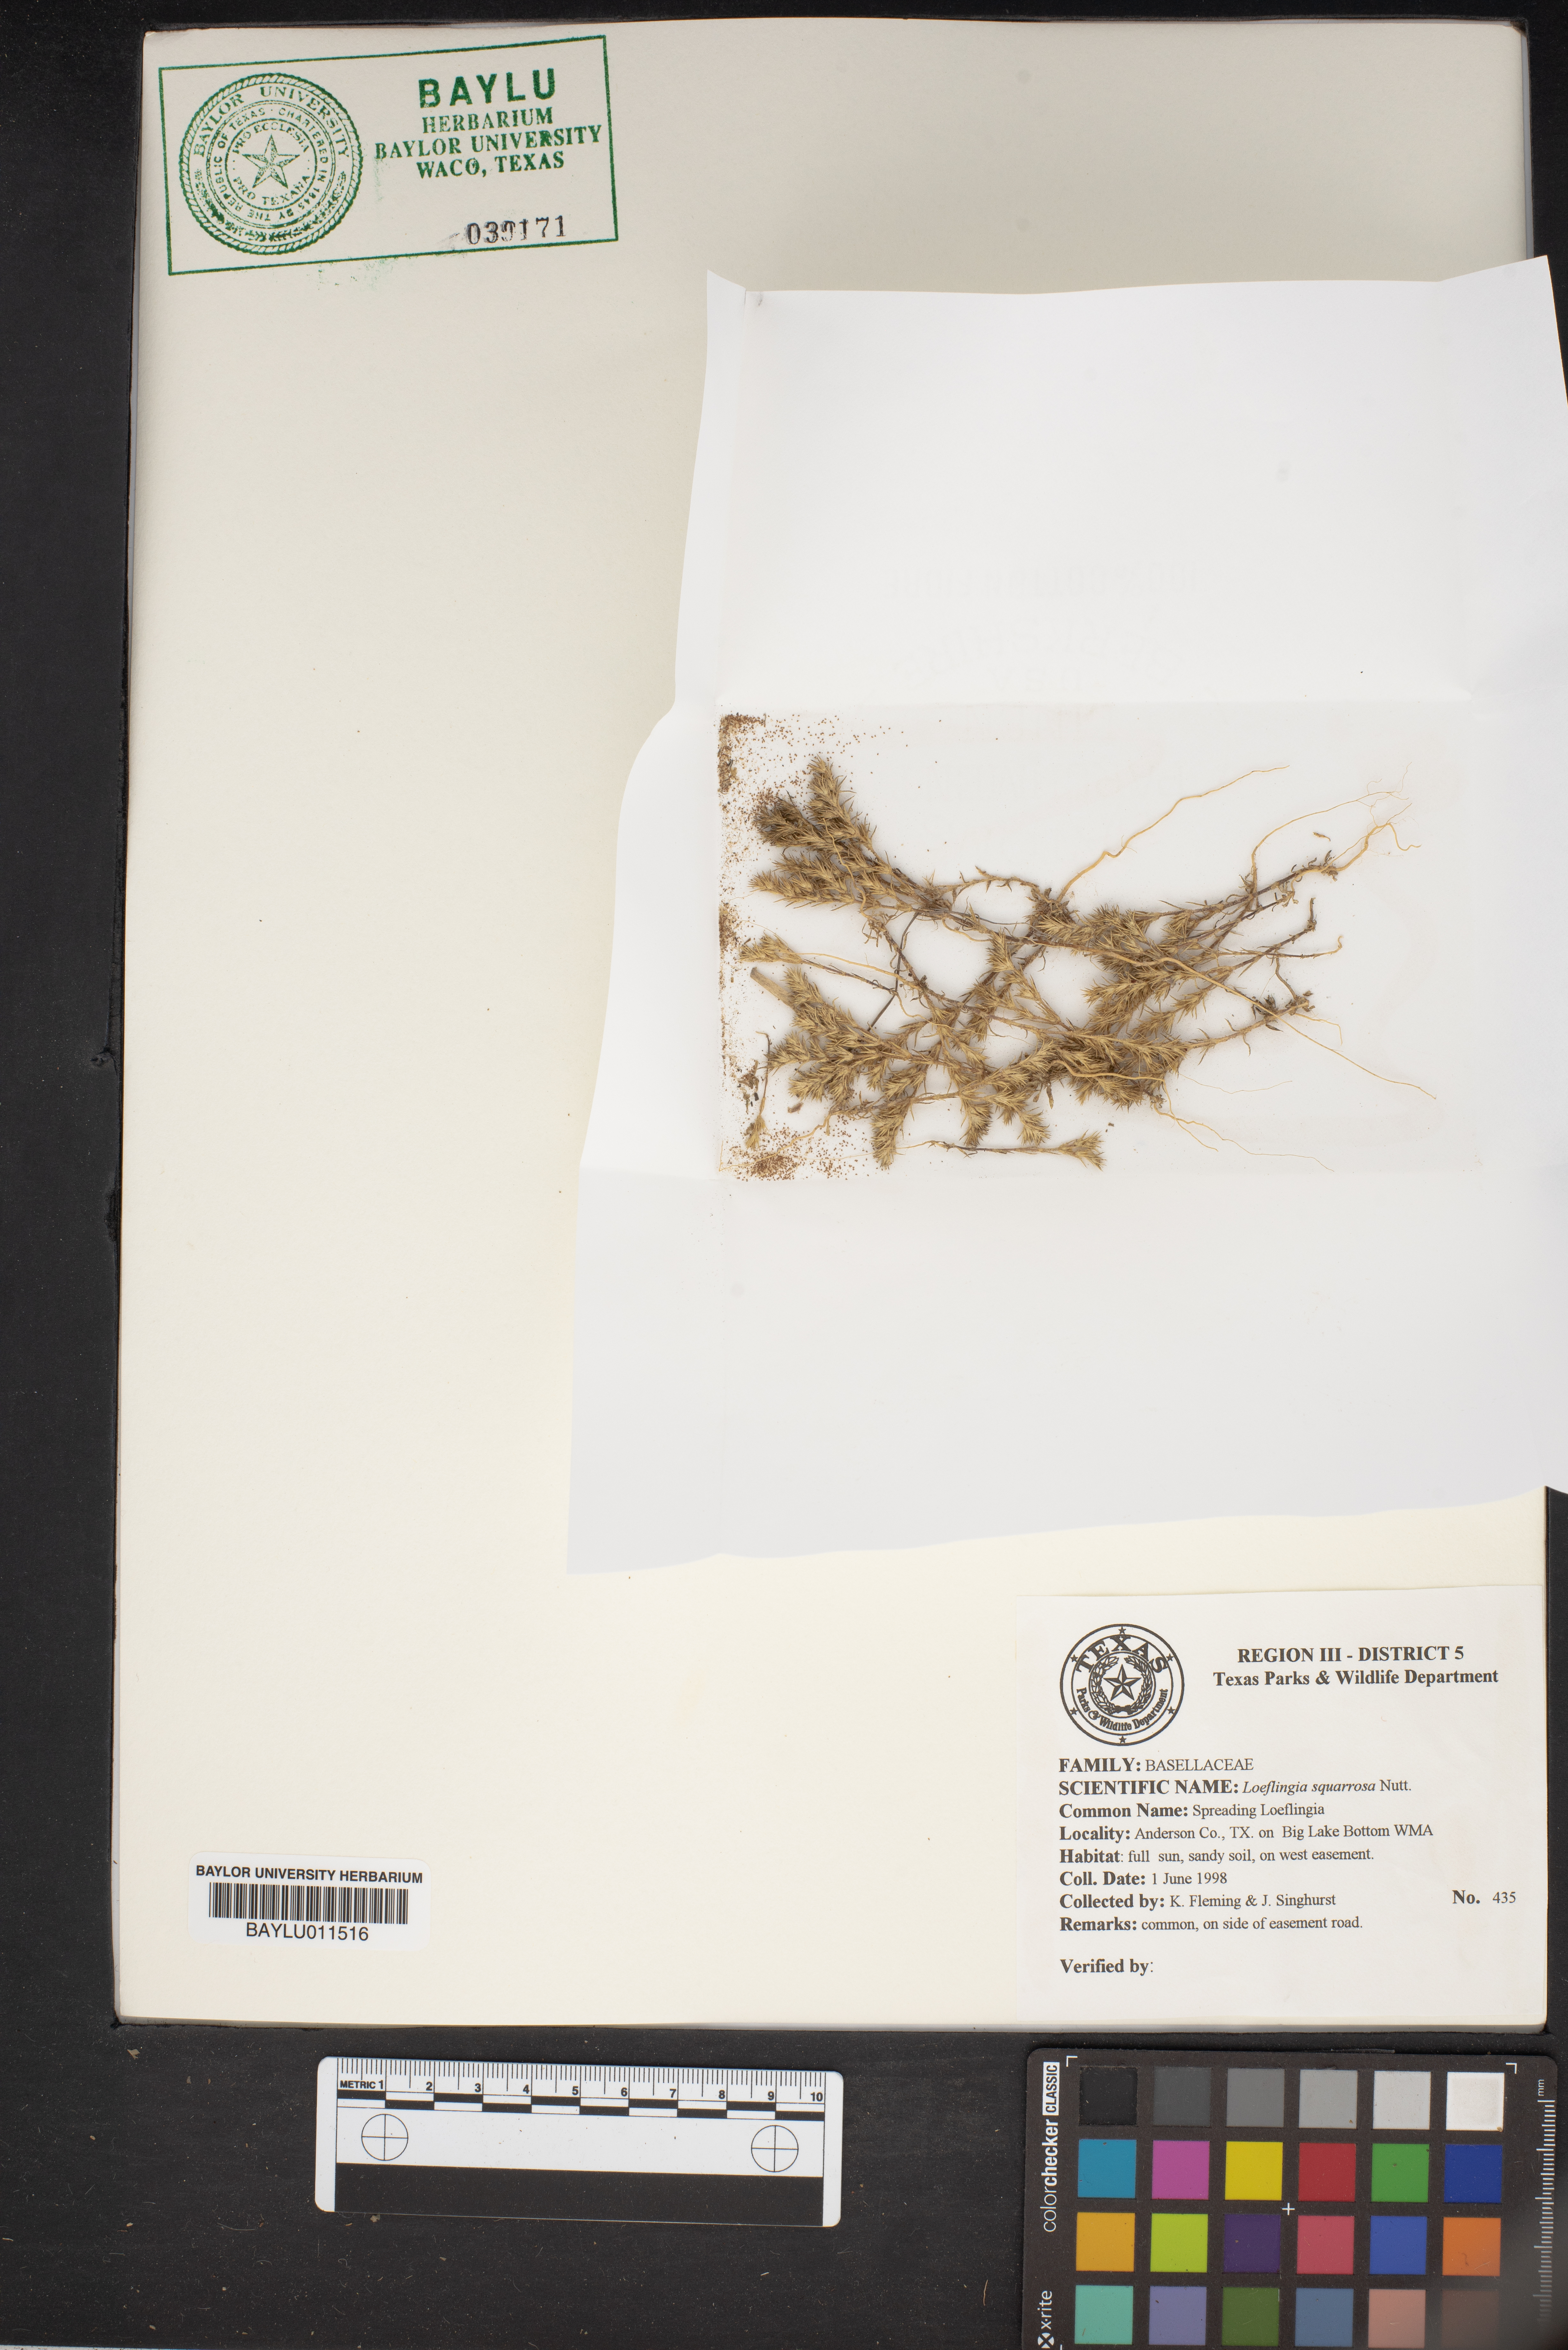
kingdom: Plantae
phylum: Tracheophyta
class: Magnoliopsida
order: Caryophyllales
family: Caryophyllaceae
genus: Loeflingia
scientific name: Loeflingia squarrosa
